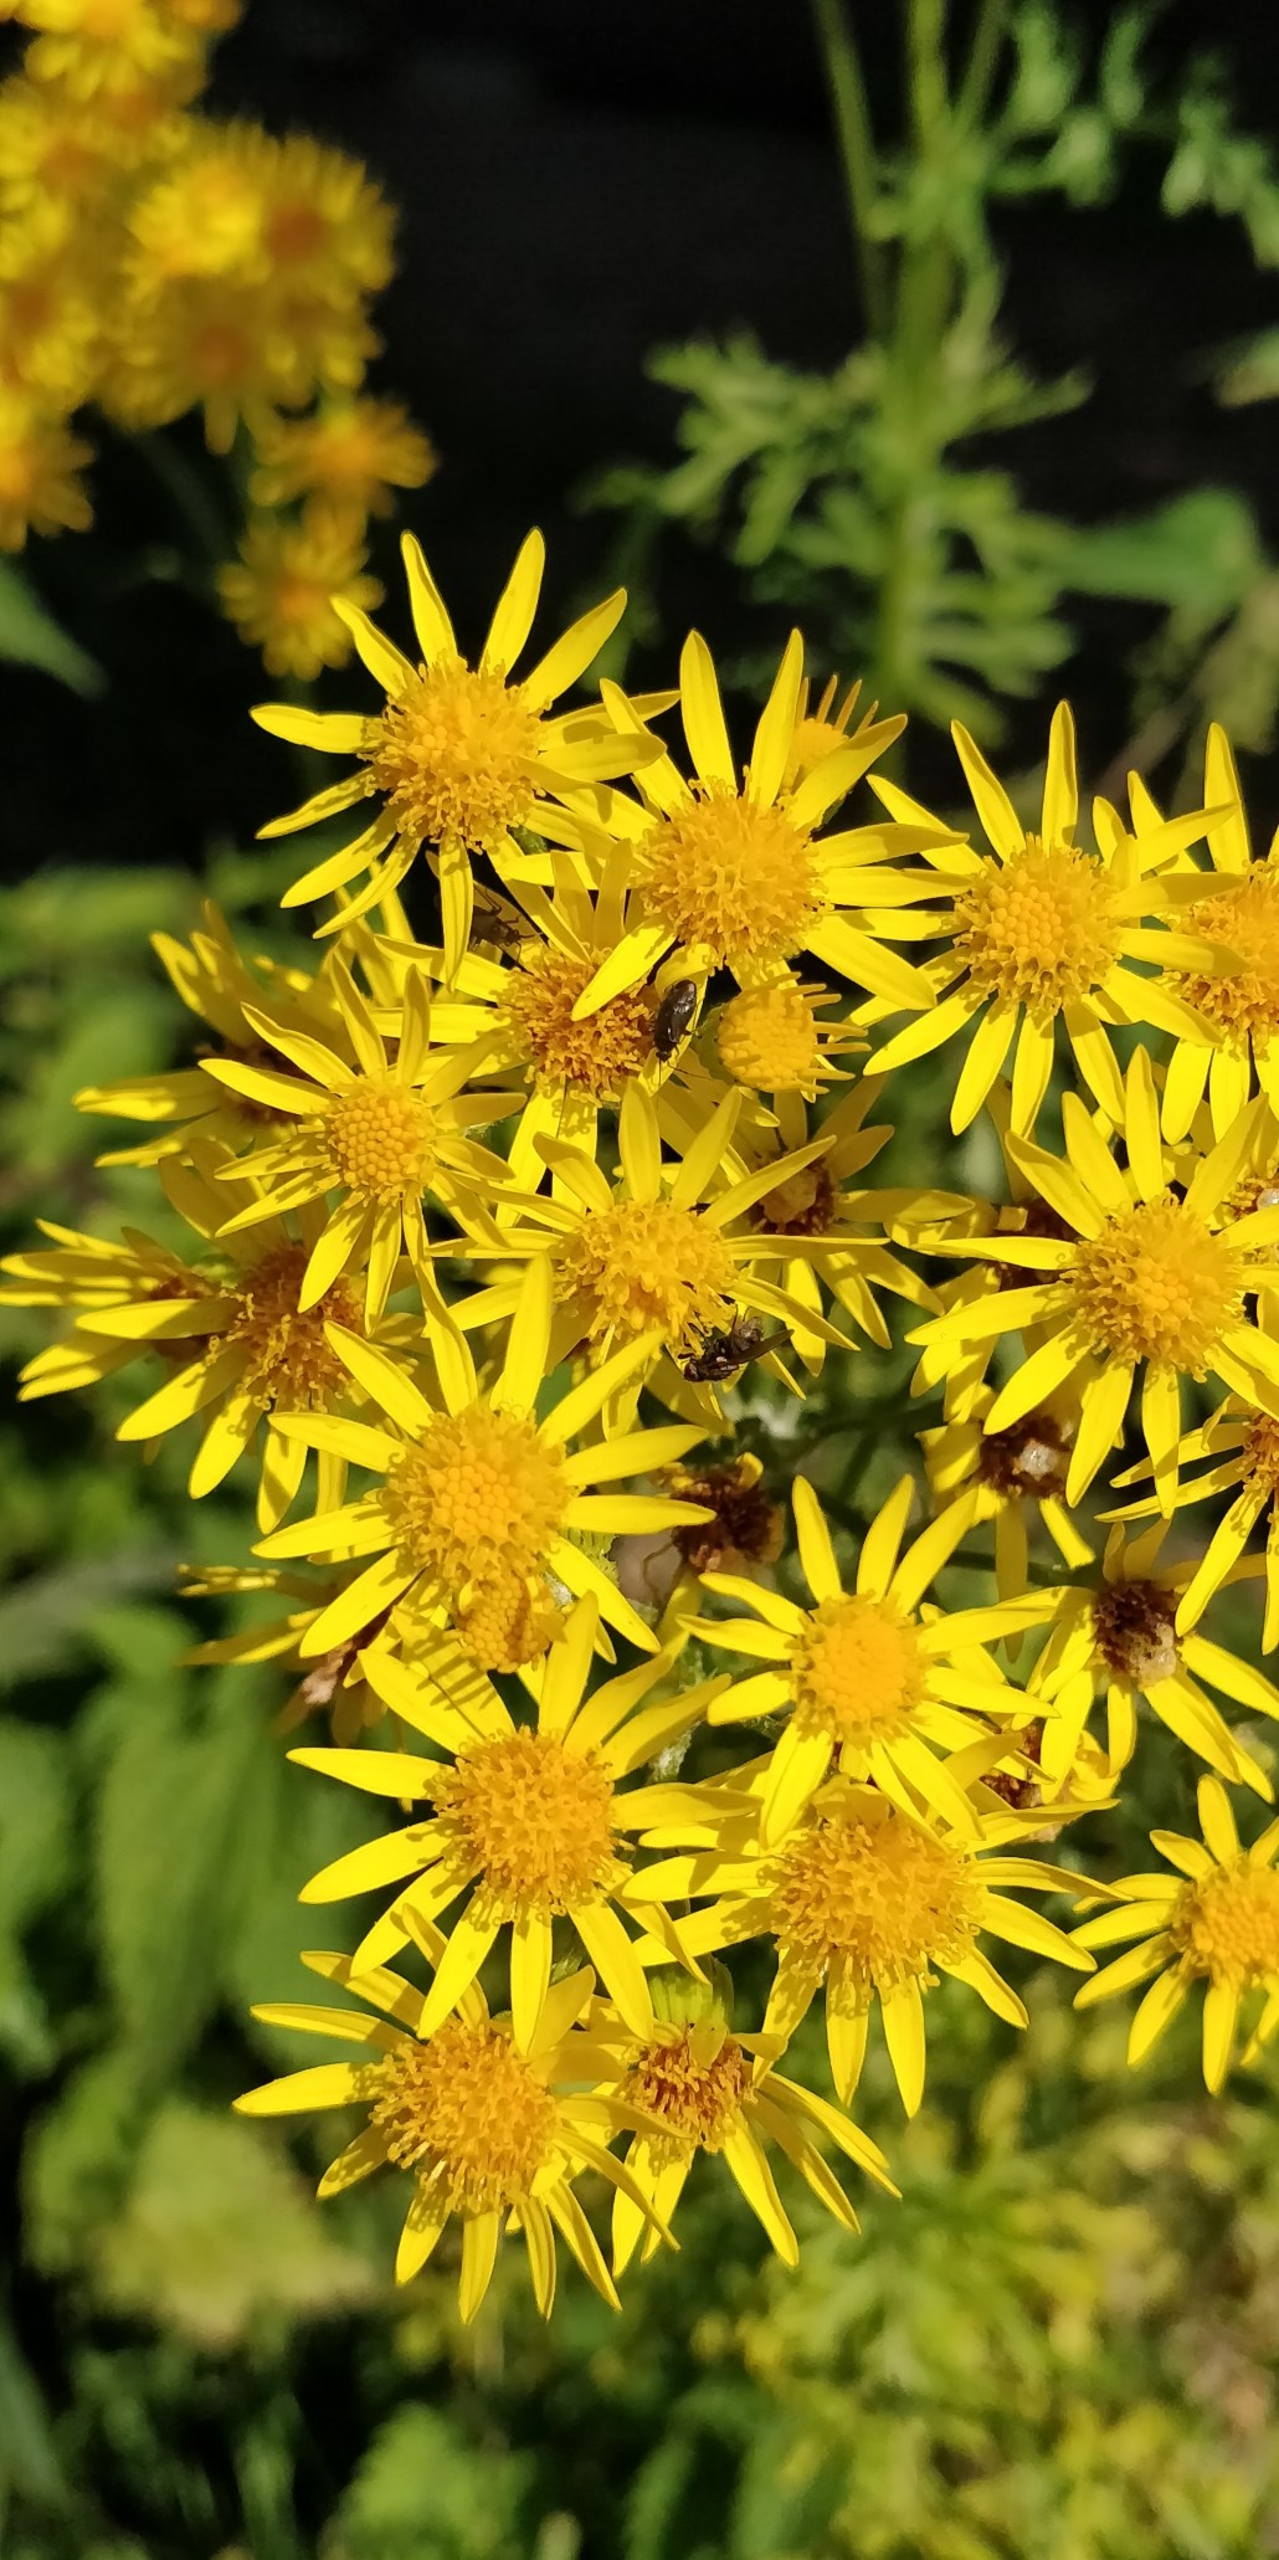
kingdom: Animalia
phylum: Arthropoda
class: Insecta
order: Hemiptera
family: Miridae
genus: Plagiognathus
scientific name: Plagiognathus arbustorum
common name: Almindelig nældeblomstertæge
